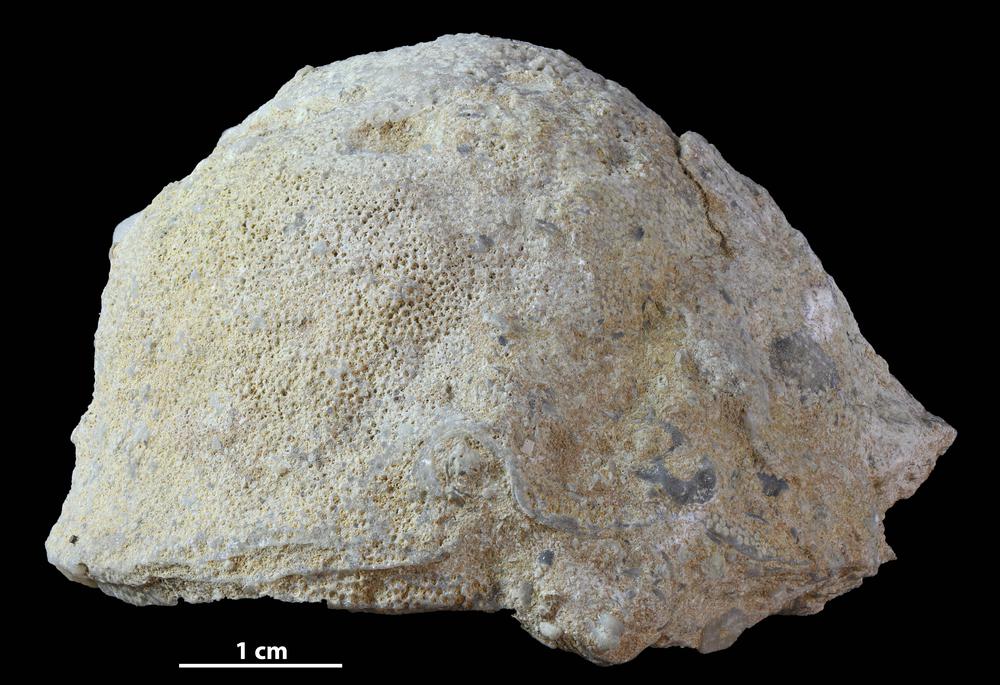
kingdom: Animalia
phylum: Bryozoa
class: Stenolaemata
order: Trepostomatida
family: Diplotrypidae
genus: Diplotrypa
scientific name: Diplotrypa
